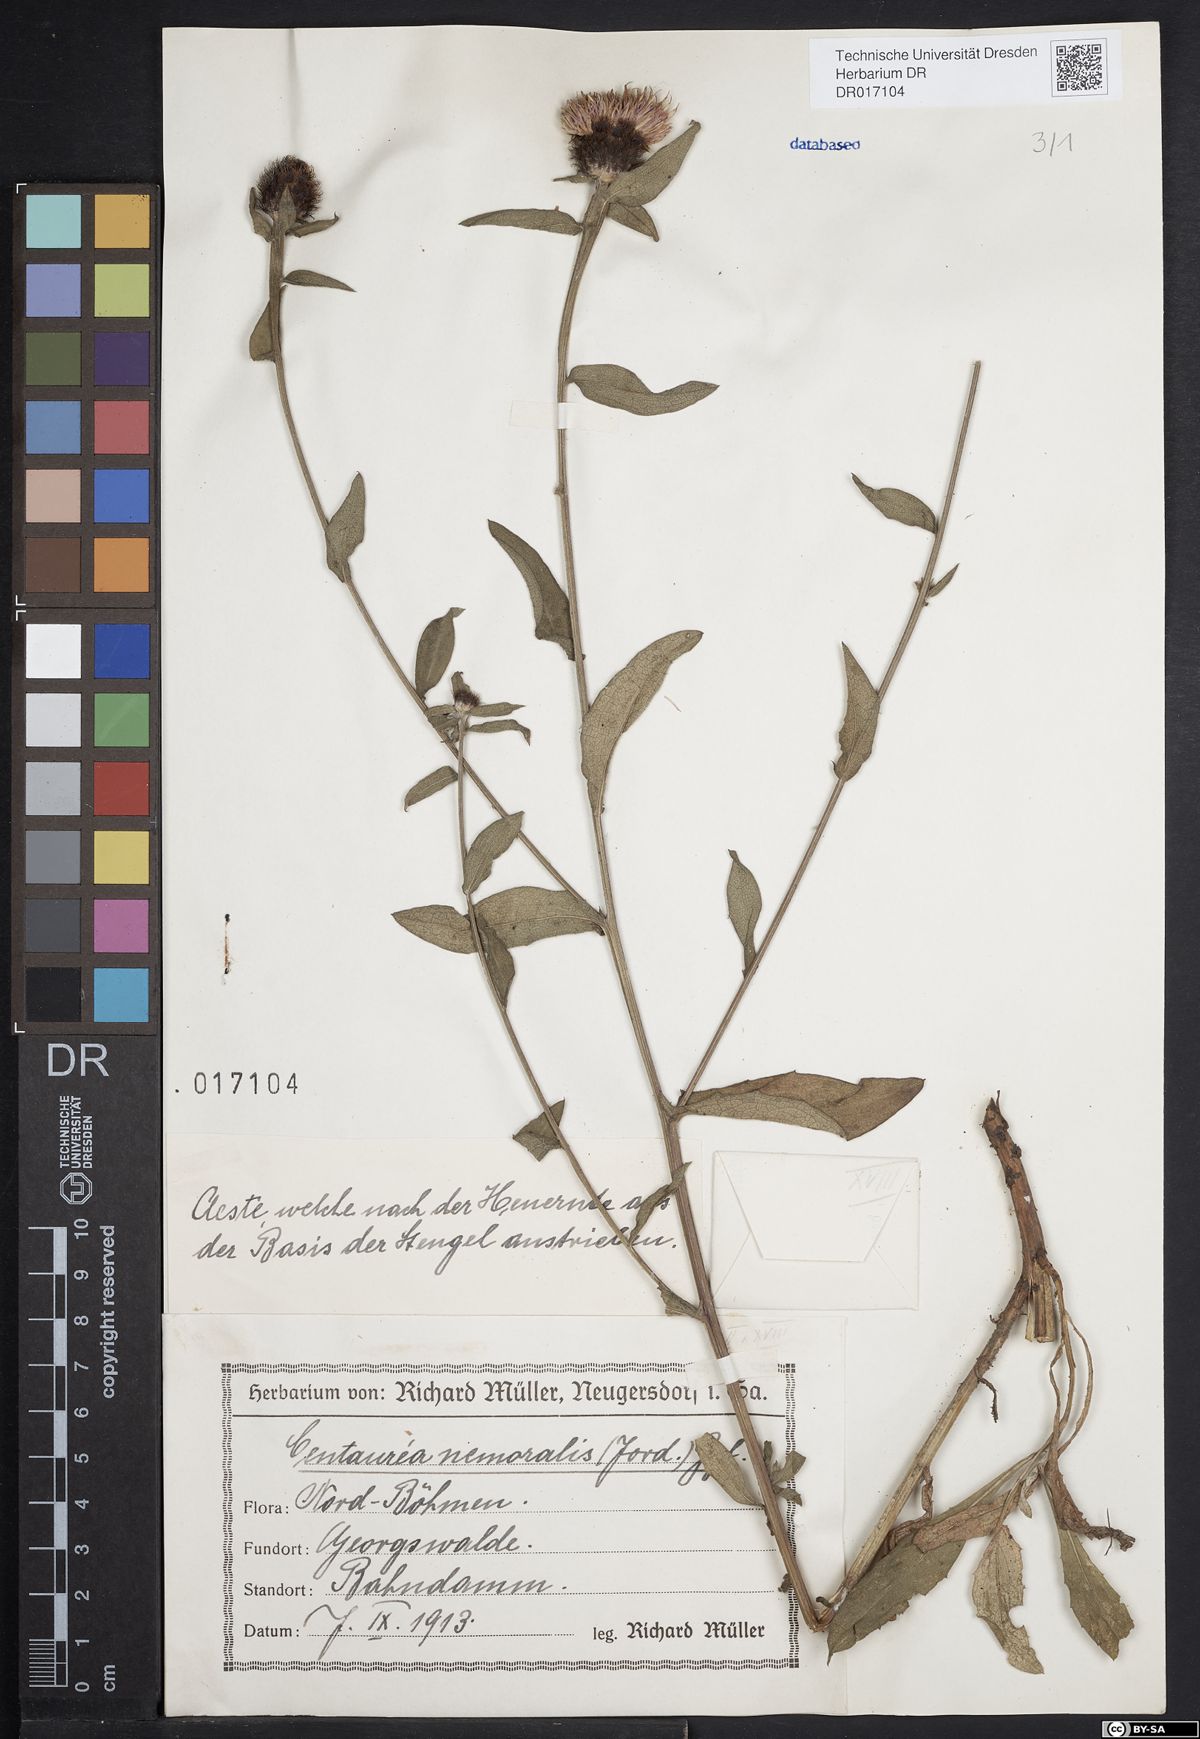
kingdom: Plantae
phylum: Tracheophyta
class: Magnoliopsida
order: Asterales
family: Asteraceae
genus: Centaurea
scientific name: Centaurea nigra
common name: Lesser knapweed
